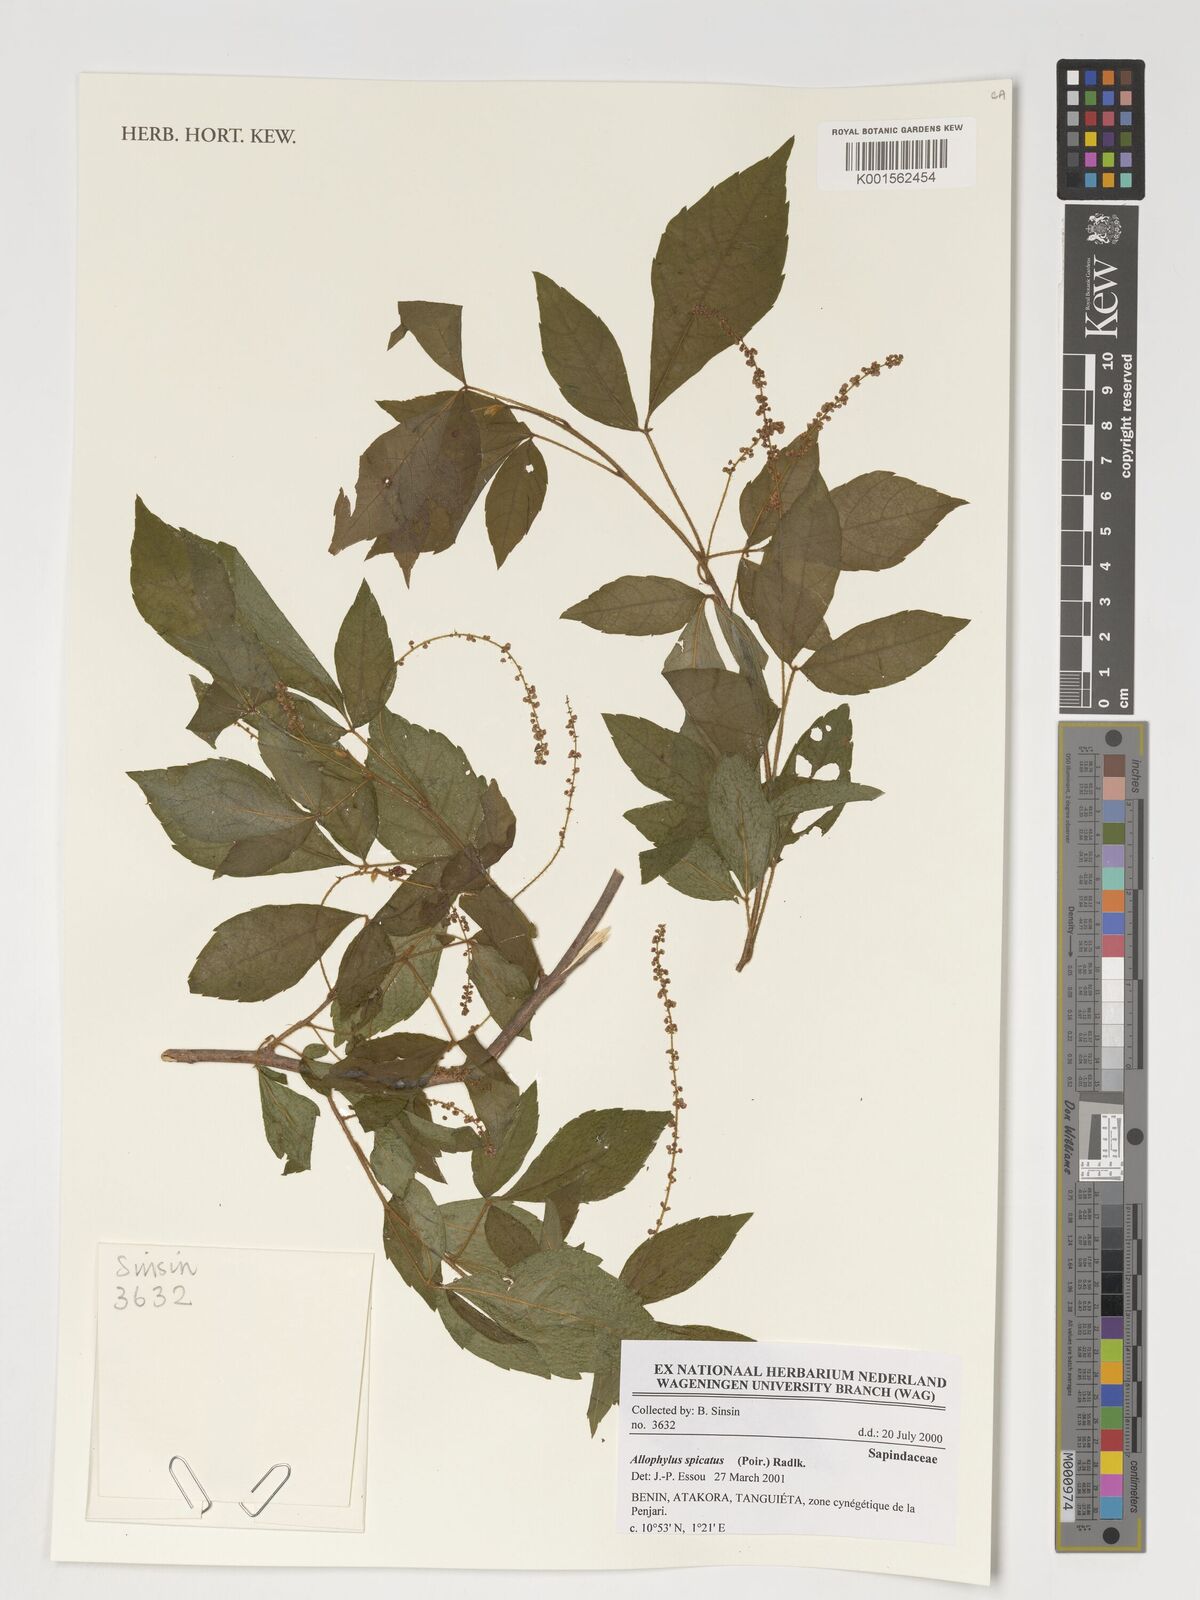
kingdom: Plantae
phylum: Tracheophyta
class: Magnoliopsida
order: Sapindales
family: Sapindaceae
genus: Allophylus
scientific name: Allophylus spicatus
